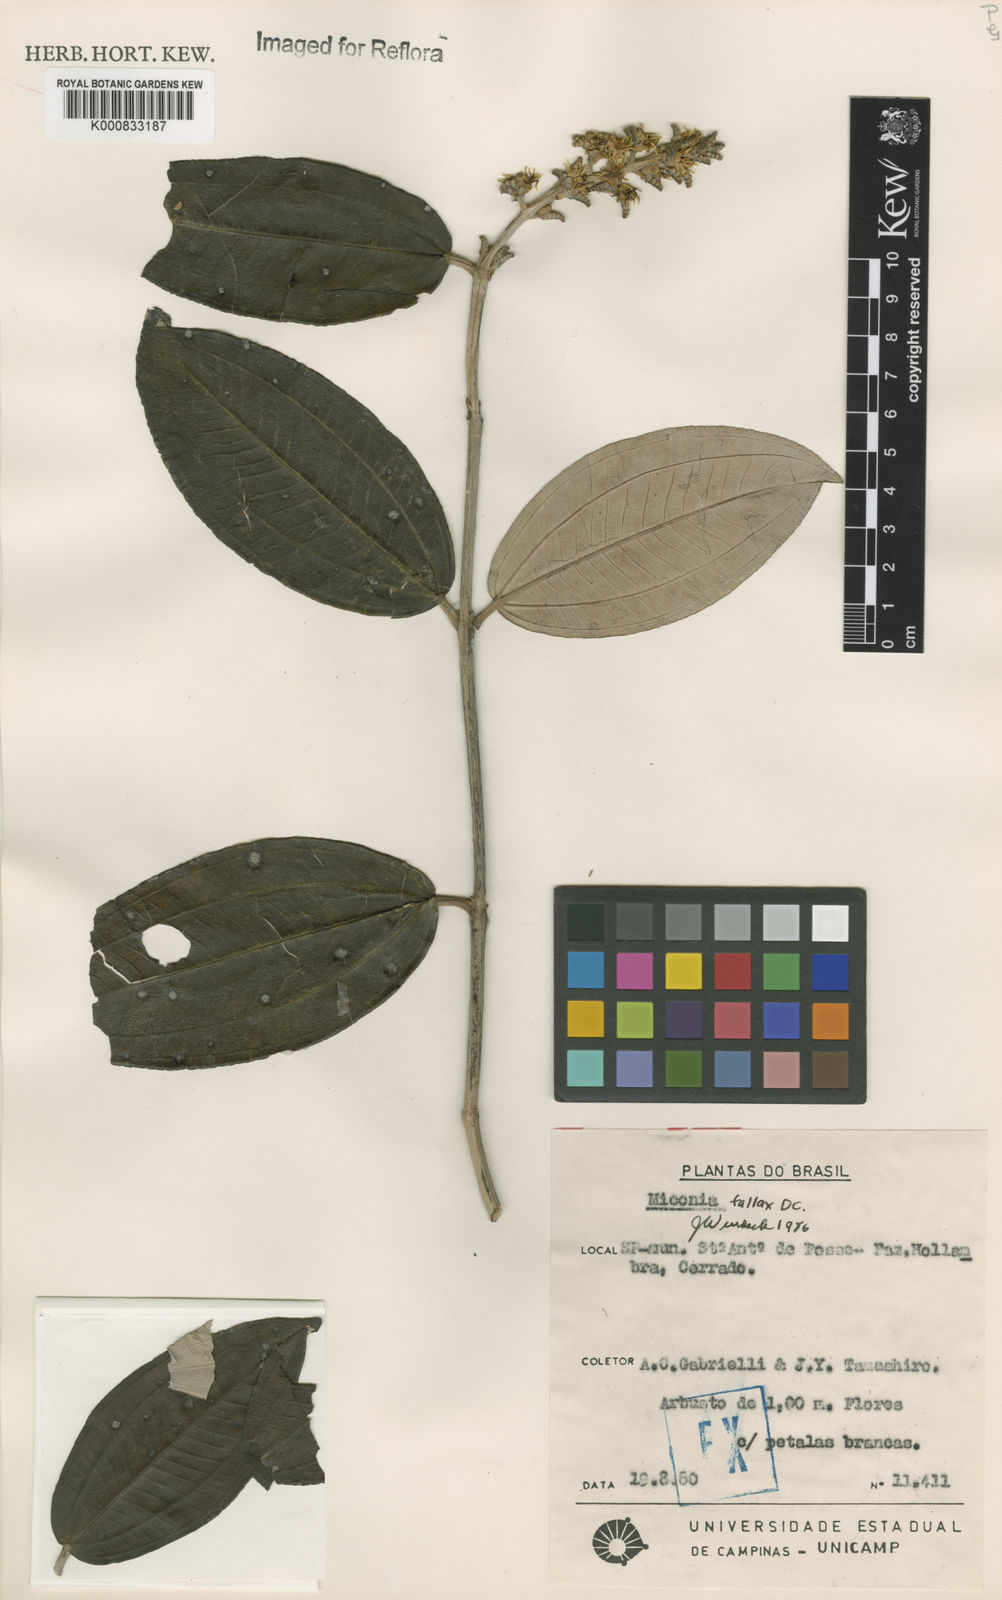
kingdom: Plantae
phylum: Tracheophyta
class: Magnoliopsida
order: Myrtales
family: Melastomataceae
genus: Miconia
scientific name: Miconia fallax
